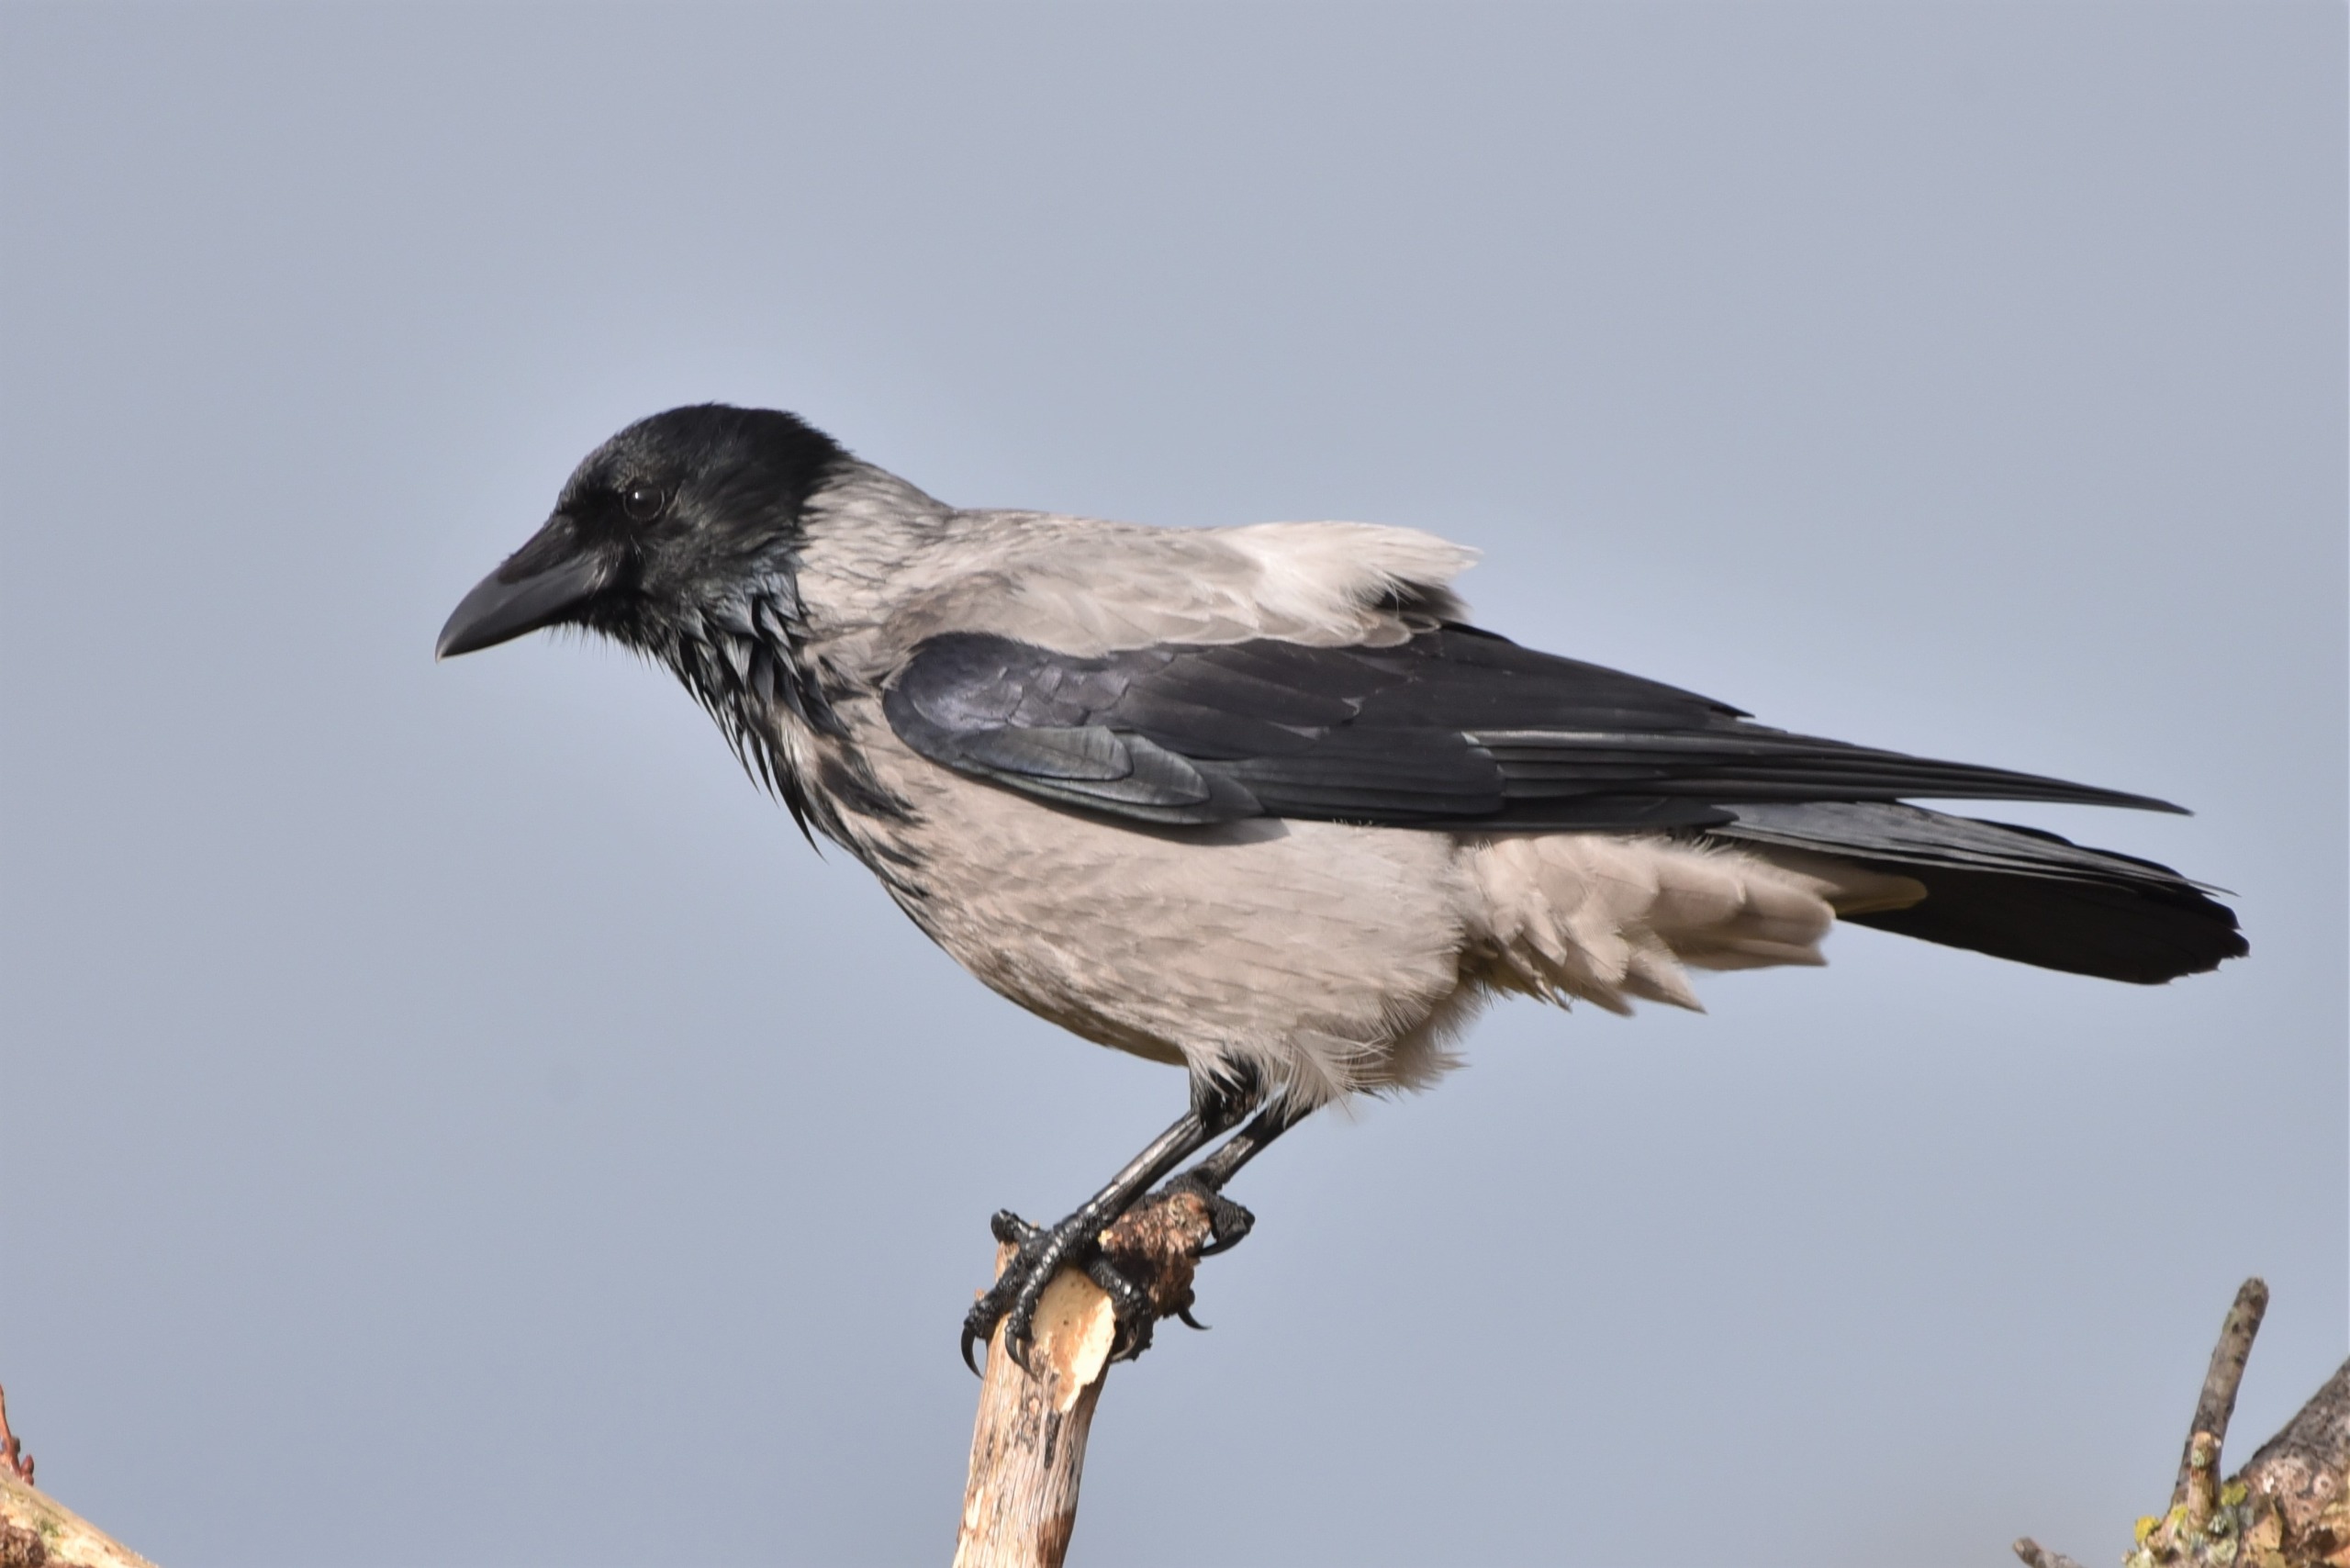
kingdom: Animalia
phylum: Chordata
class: Aves
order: Passeriformes
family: Corvidae
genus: Corvus
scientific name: Corvus cornix
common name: Gråkrage
